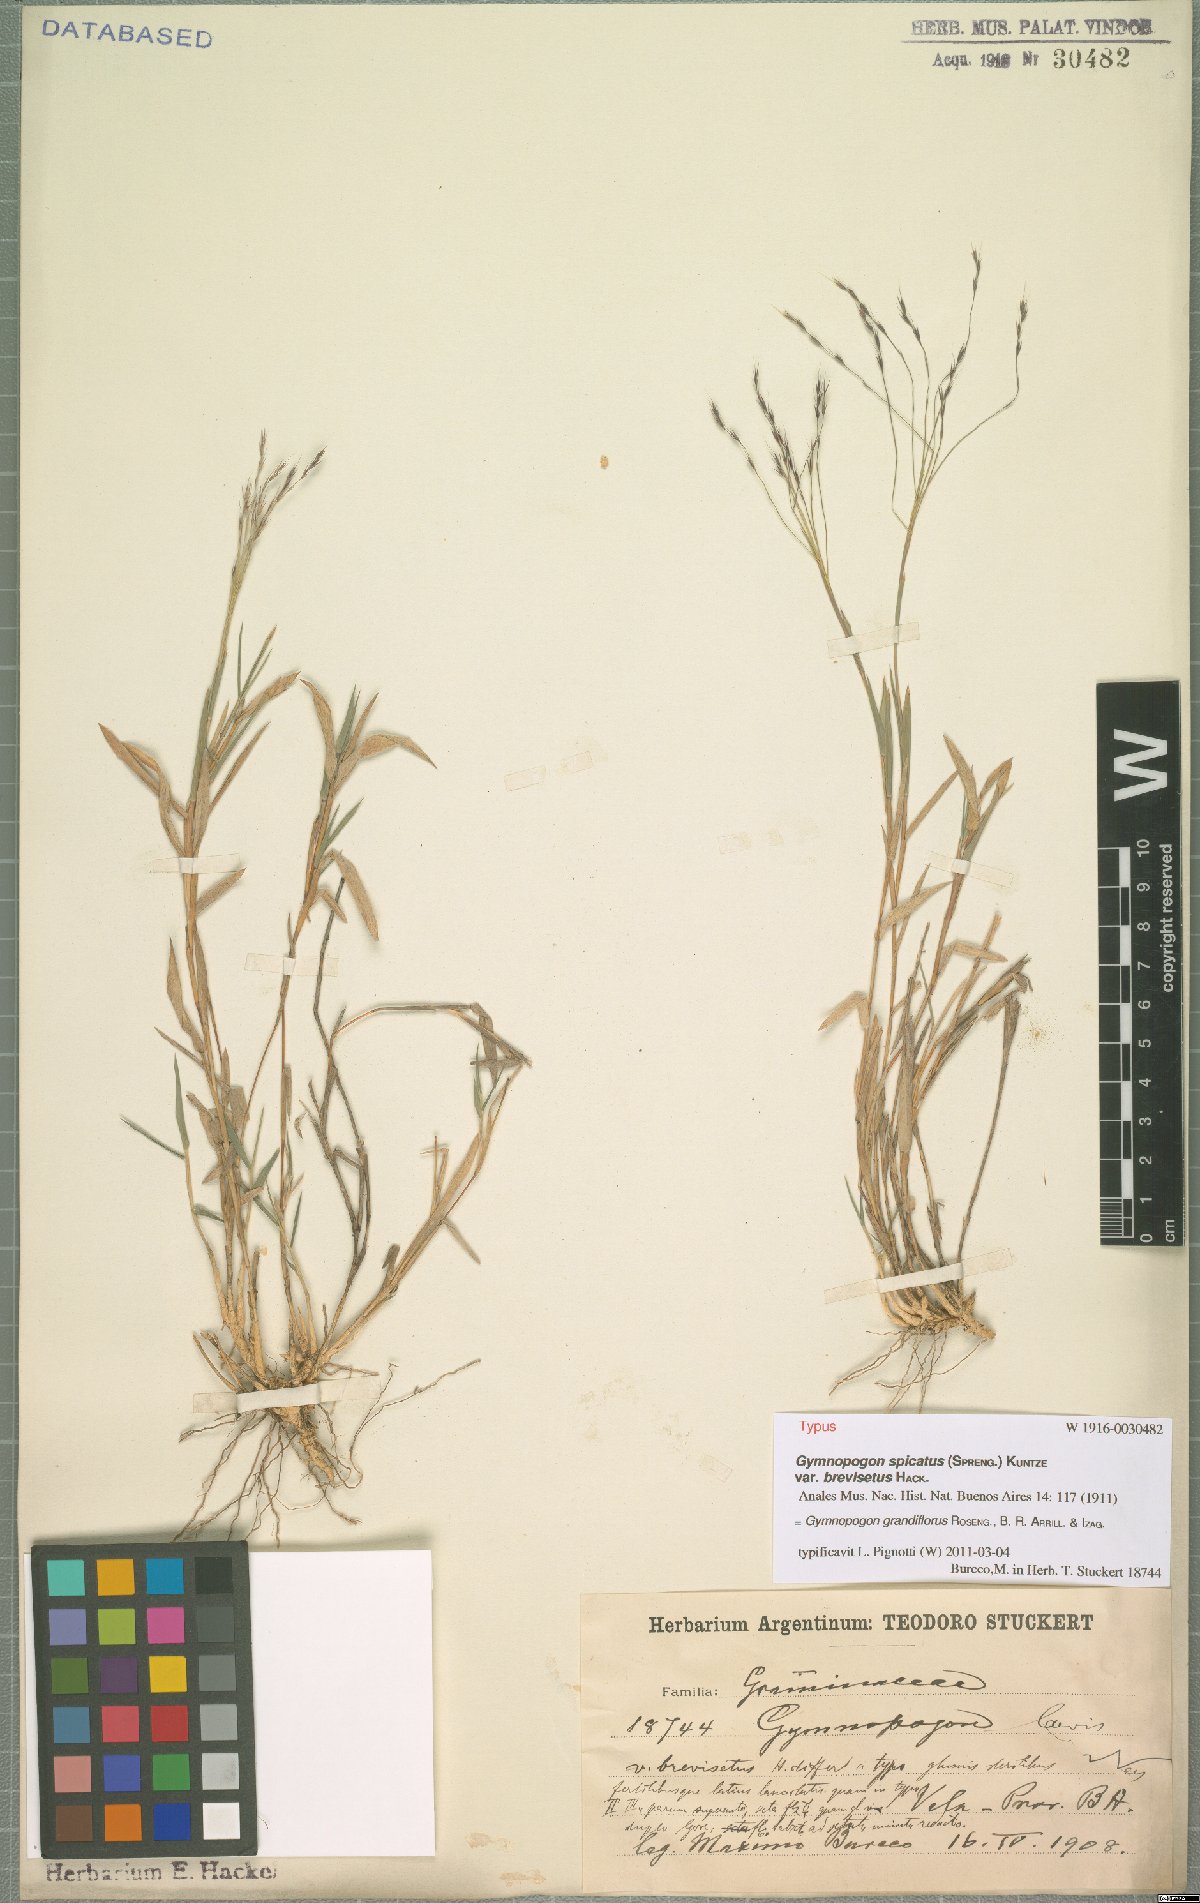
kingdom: Plantae
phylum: Tracheophyta
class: Liliopsida
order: Poales
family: Poaceae
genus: Gymnopogon
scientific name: Gymnopogon grandiflorus
